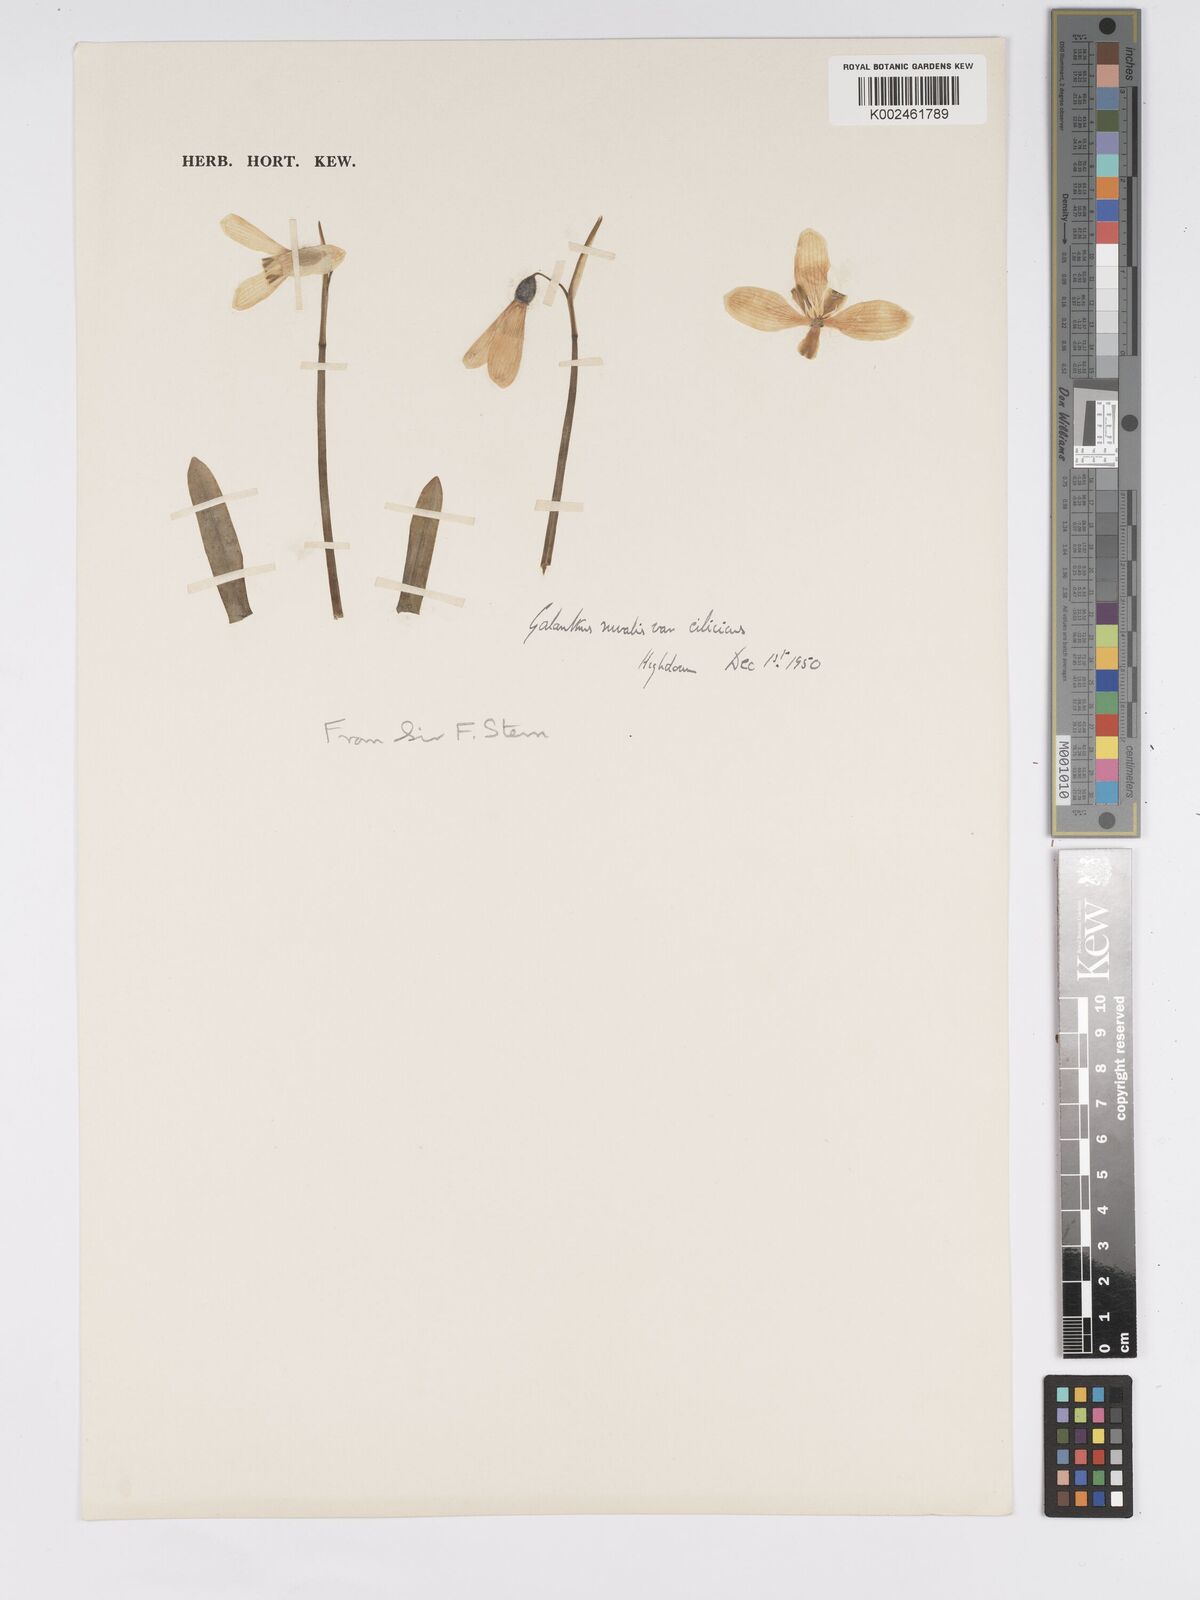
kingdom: Plantae
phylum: Tracheophyta
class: Liliopsida
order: Asparagales
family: Amaryllidaceae
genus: Galanthus
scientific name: Galanthus
